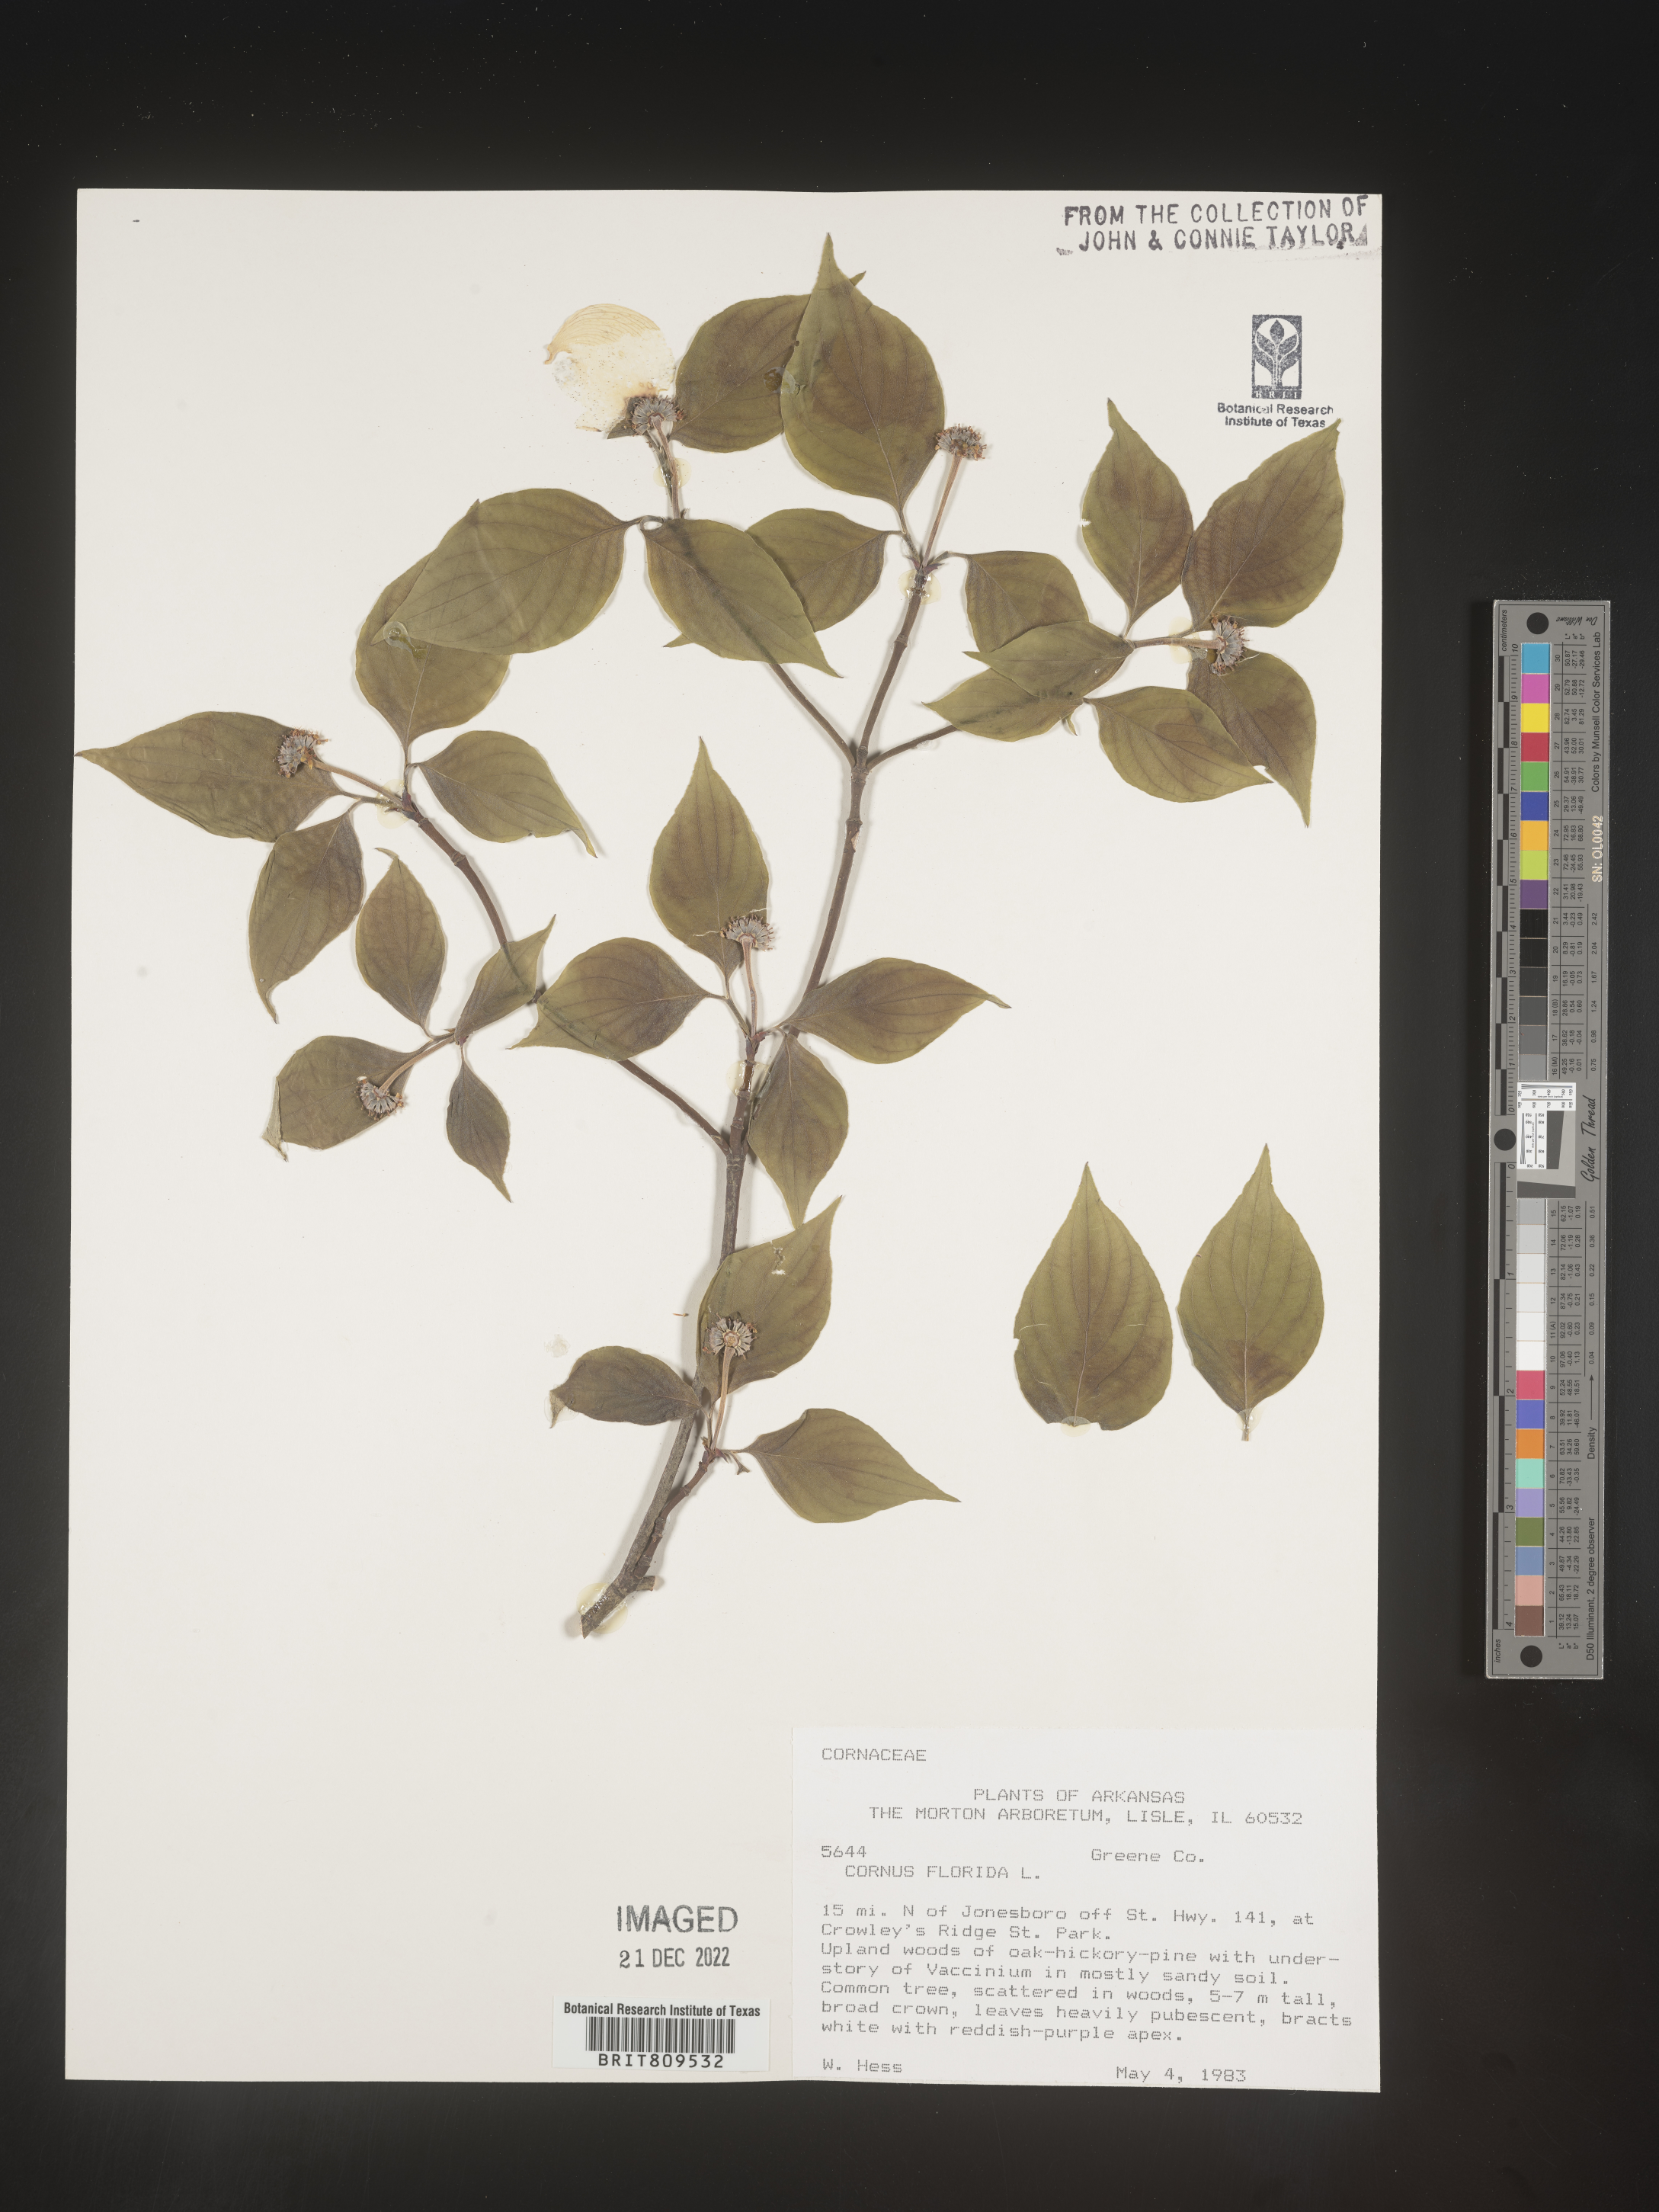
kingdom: Plantae
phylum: Tracheophyta
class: Magnoliopsida
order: Cornales
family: Cornaceae
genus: Cornus
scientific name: Cornus florida
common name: Flowering dogwood
